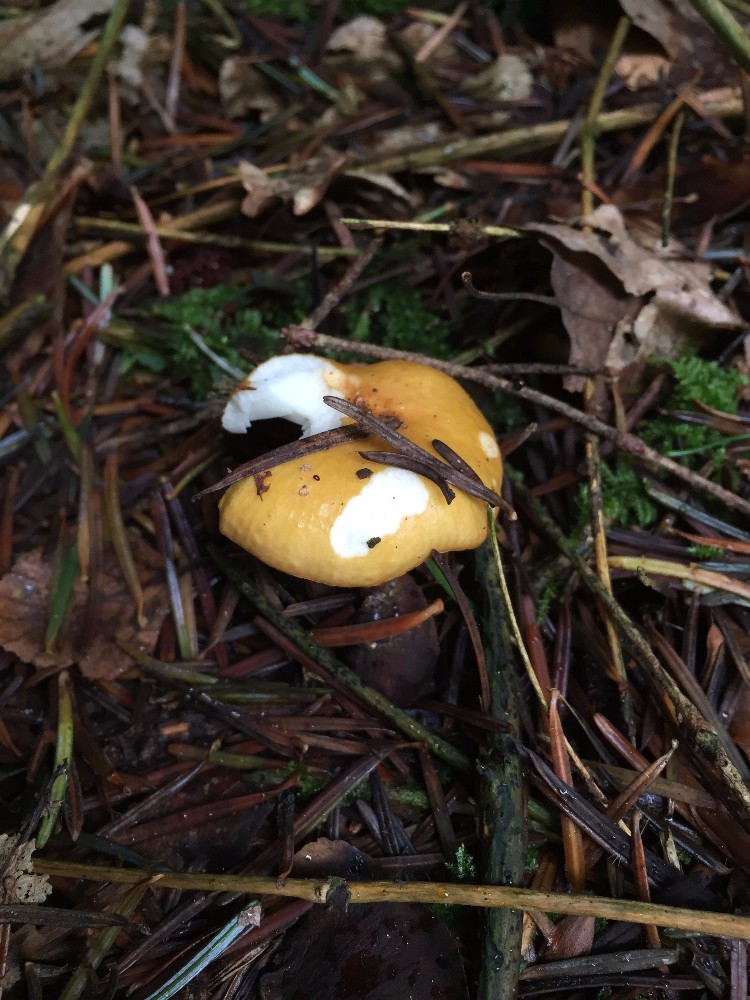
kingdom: Fungi
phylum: Basidiomycota
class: Agaricomycetes
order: Russulales
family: Russulaceae
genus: Russula
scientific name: Russula ochroleuca
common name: okkergul skørhat
